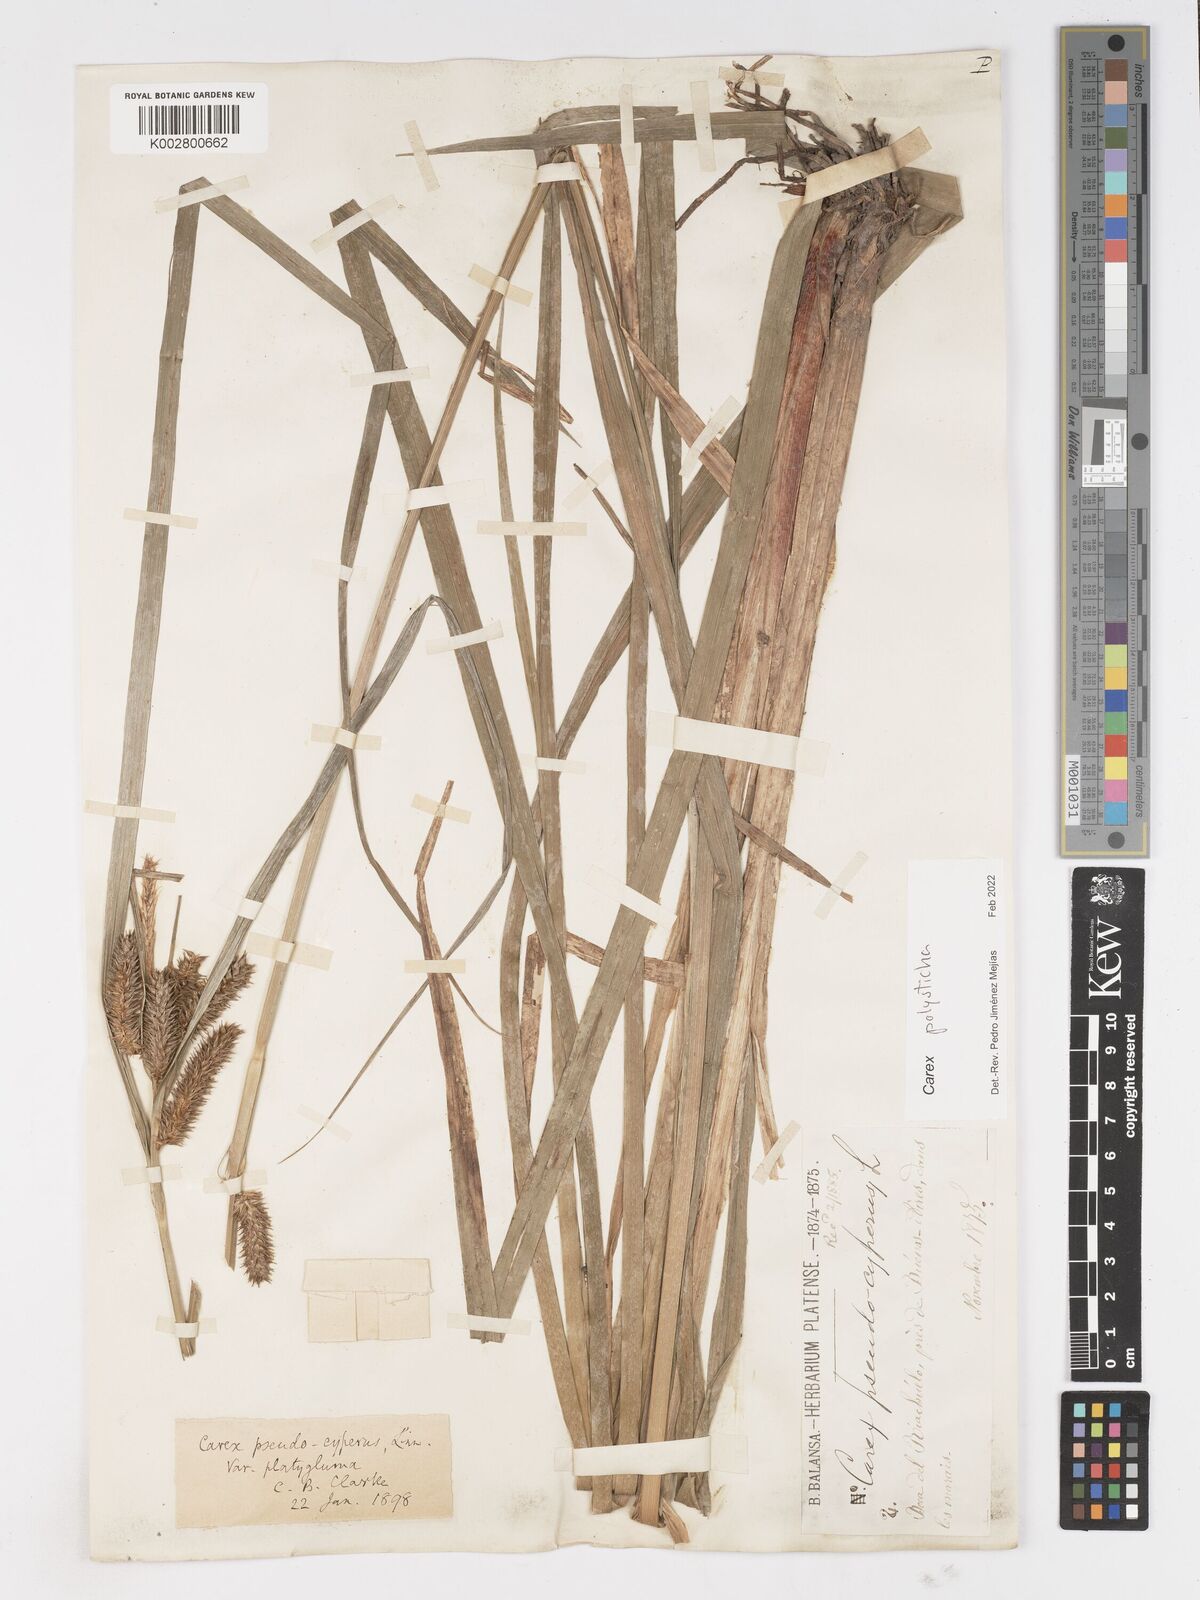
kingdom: Plantae
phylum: Tracheophyta
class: Liliopsida
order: Poales
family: Cyperaceae
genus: Carex
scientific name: Carex polysticha
